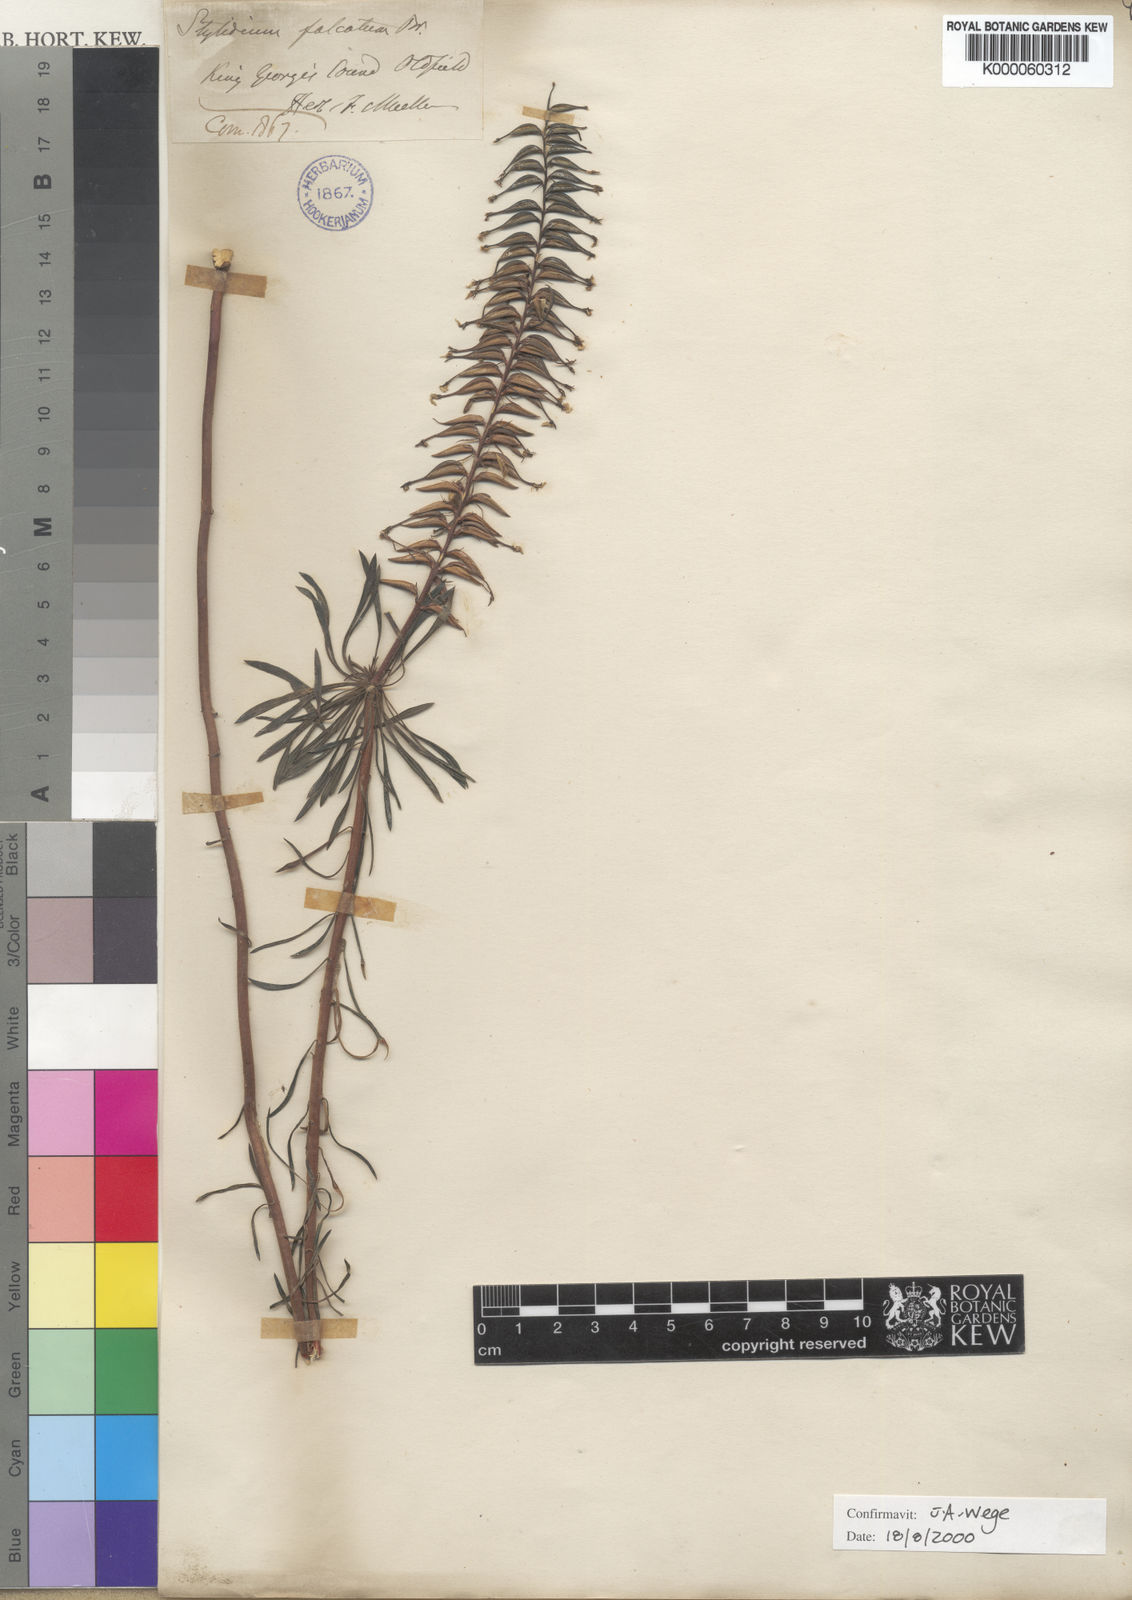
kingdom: Plantae
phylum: Tracheophyta
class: Magnoliopsida
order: Asterales
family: Stylidiaceae
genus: Stylidium
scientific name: Stylidium falcatum
